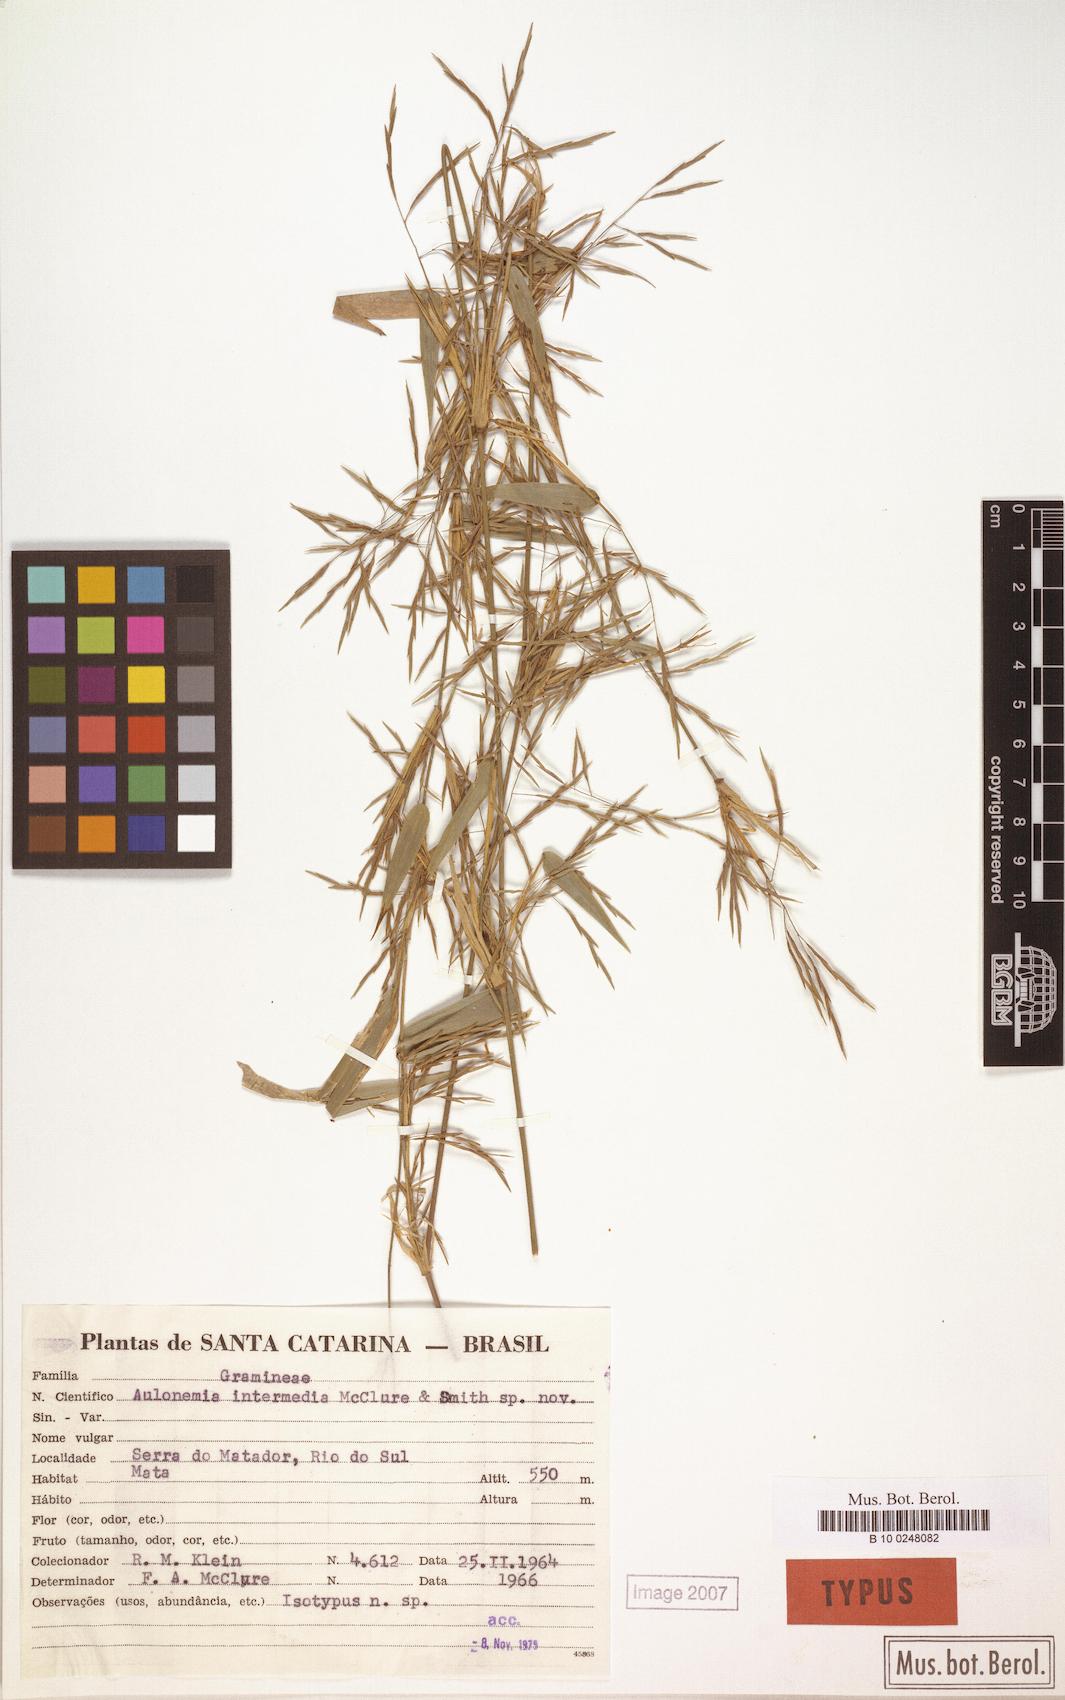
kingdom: Plantae
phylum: Tracheophyta
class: Liliopsida
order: Poales
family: Poaceae
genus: Colanthelia
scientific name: Colanthelia intermedia
